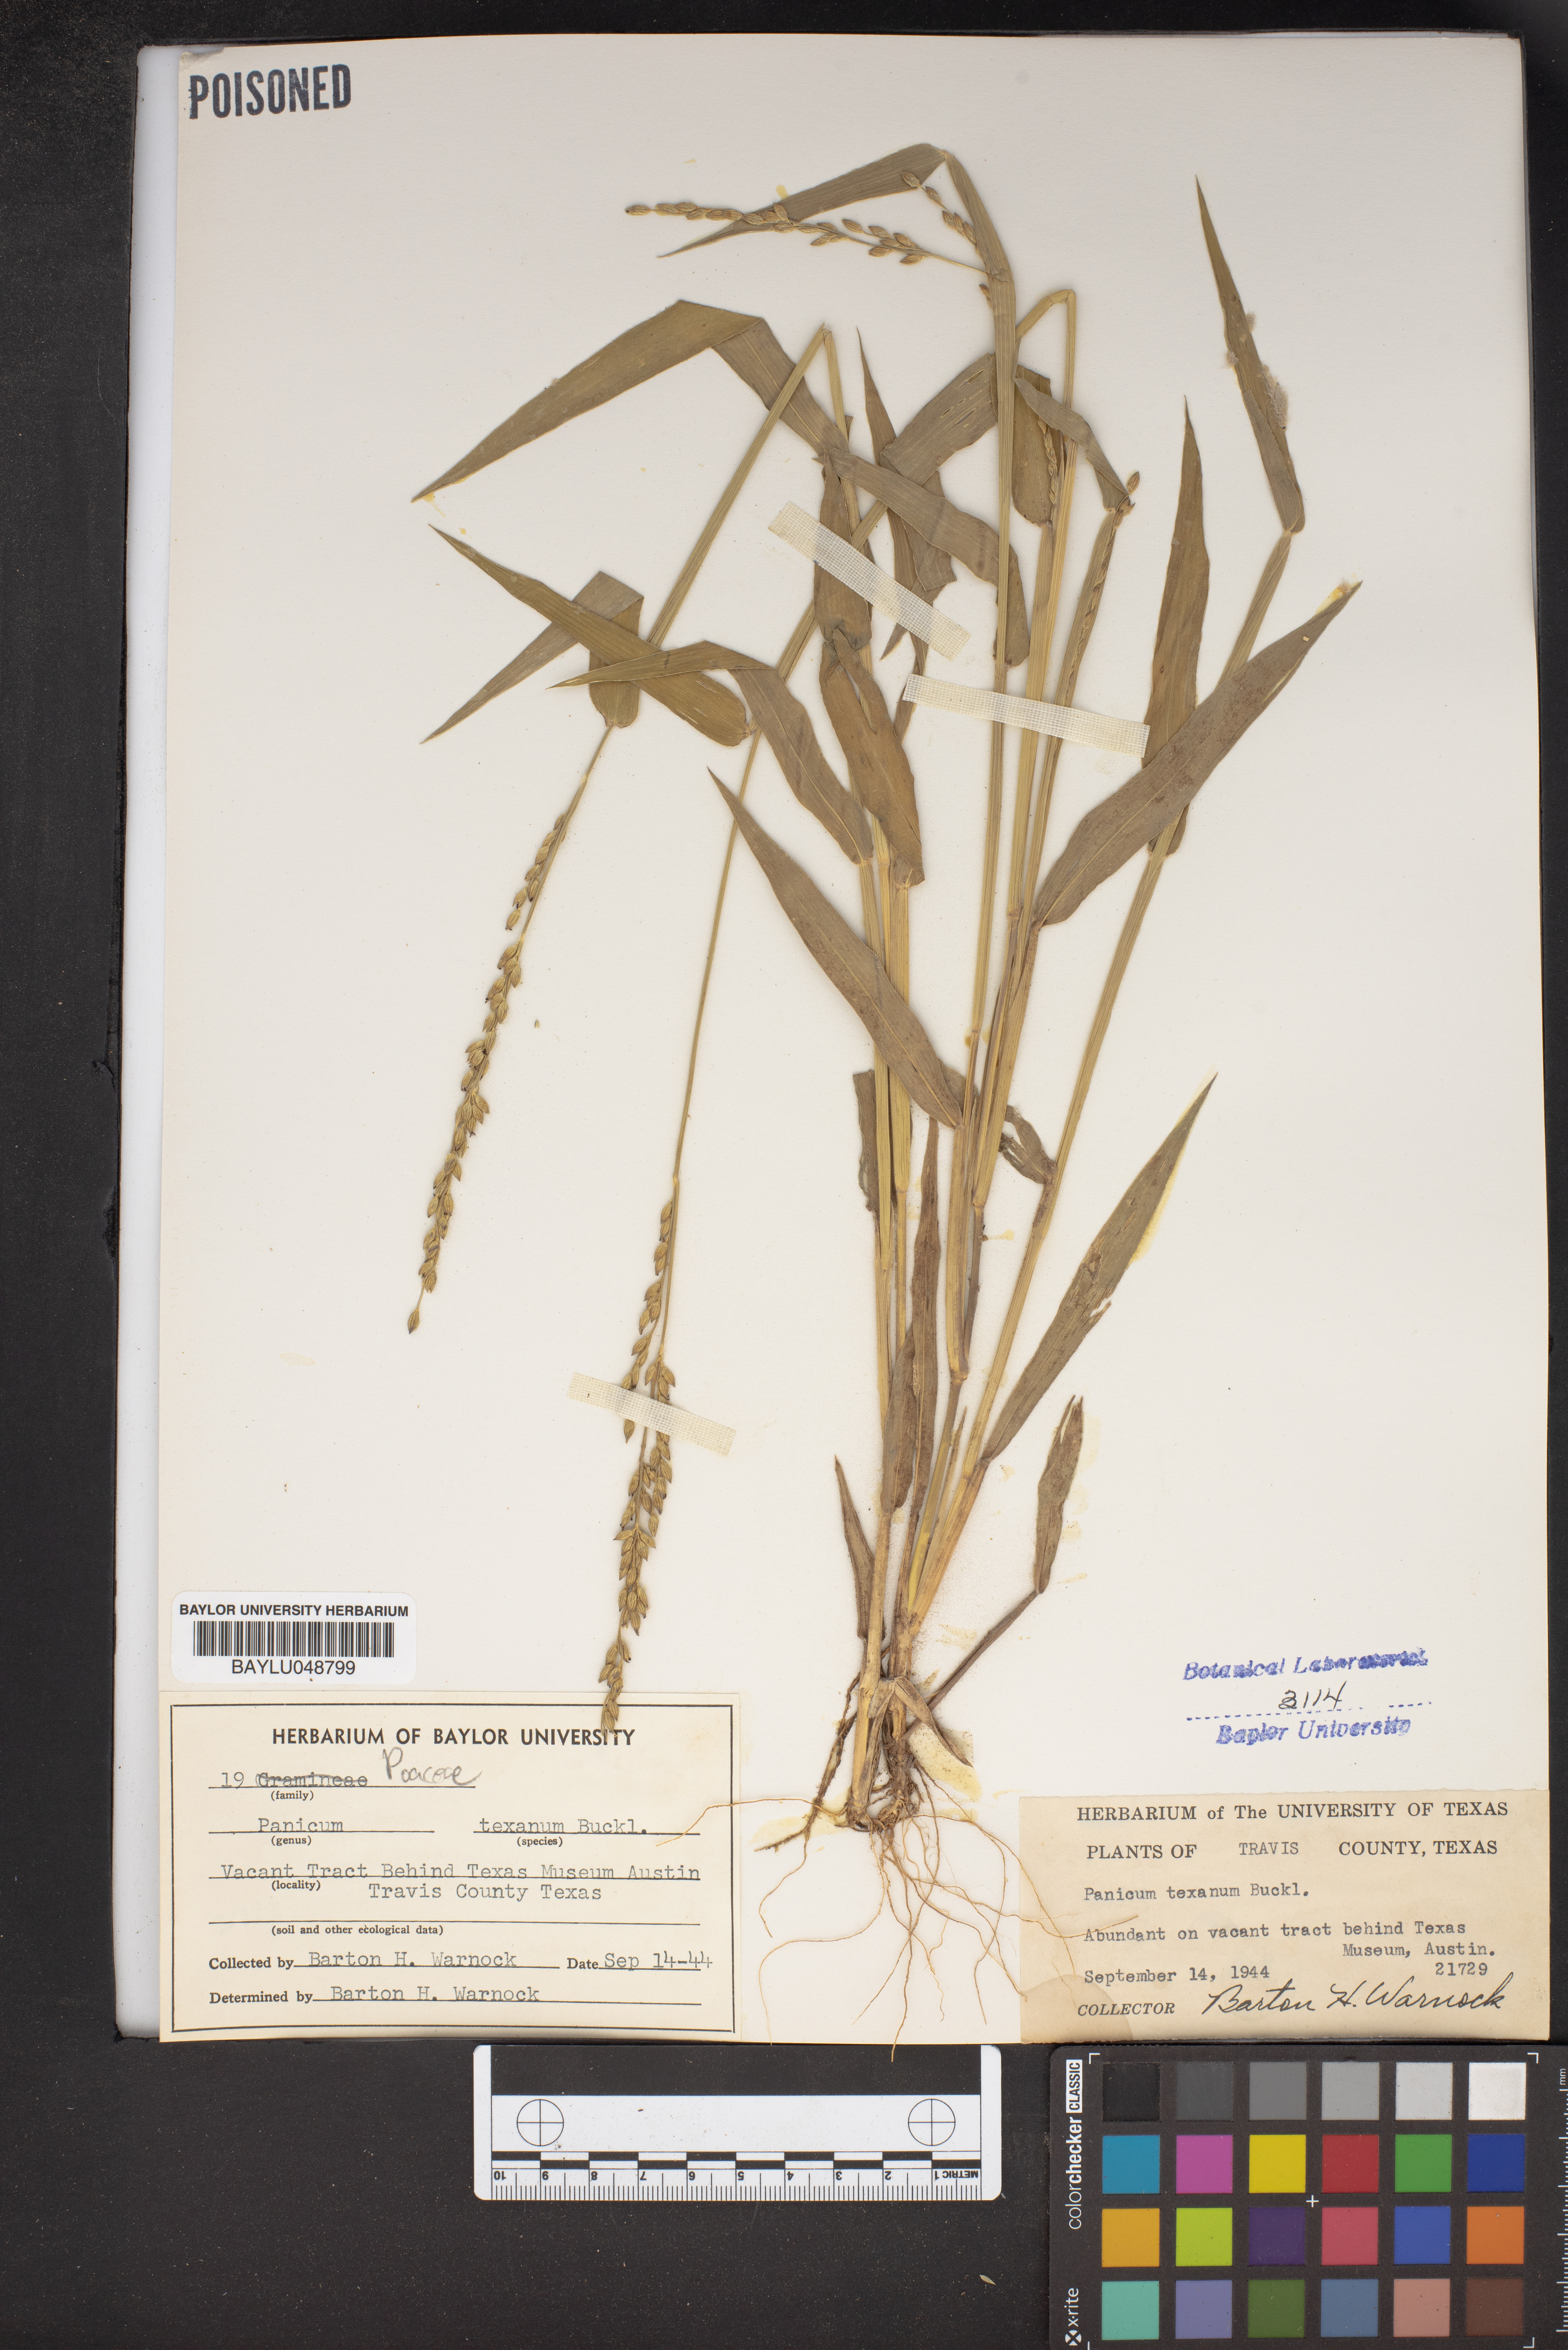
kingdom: Plantae
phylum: Tracheophyta
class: Liliopsida
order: Poales
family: Poaceae
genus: Urochloa
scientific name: Urochloa texana
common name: Texas millet
